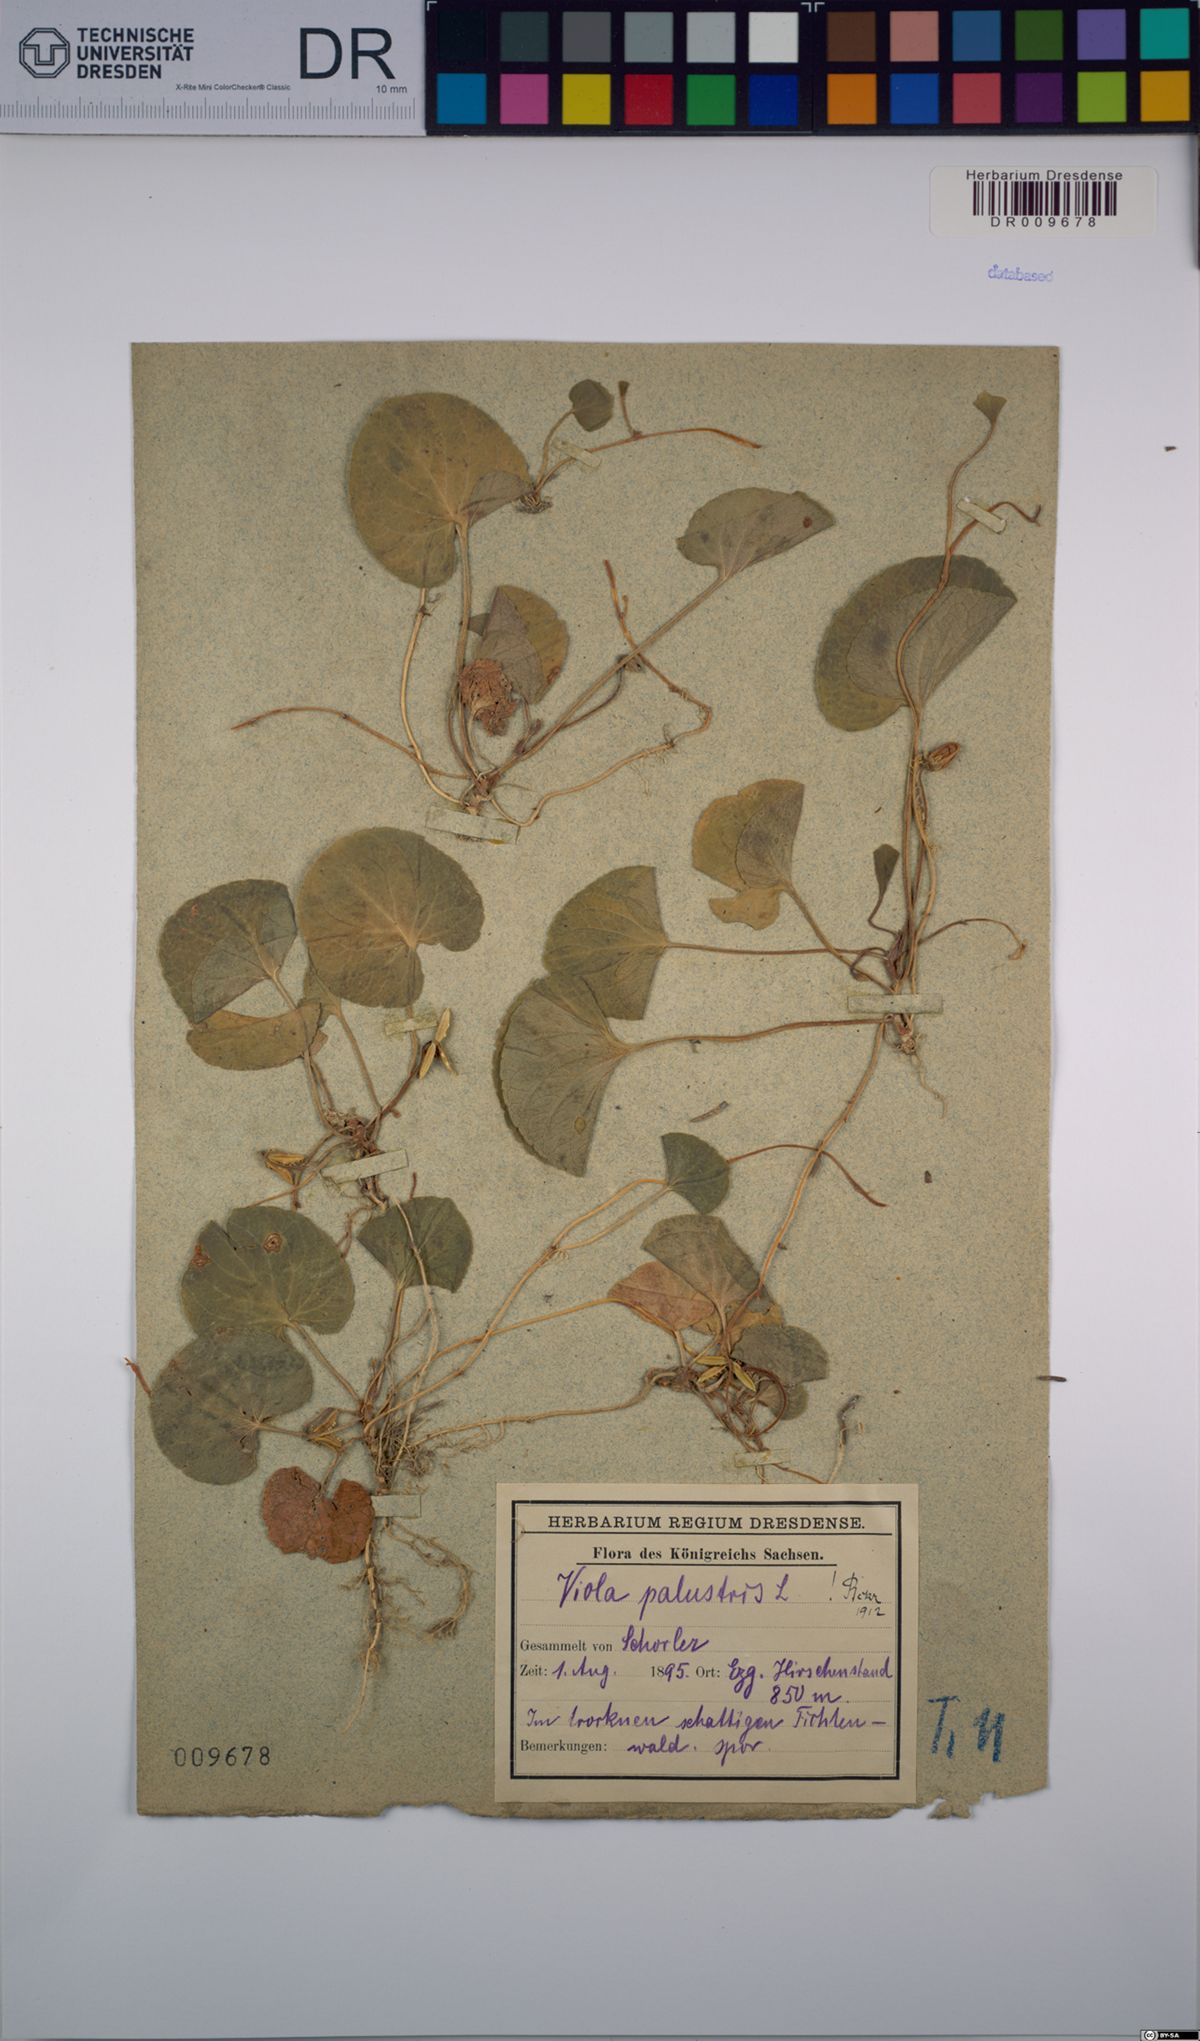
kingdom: Plantae
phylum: Tracheophyta
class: Magnoliopsida
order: Malpighiales
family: Violaceae
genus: Viola
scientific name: Viola palustris
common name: Marsh violet
